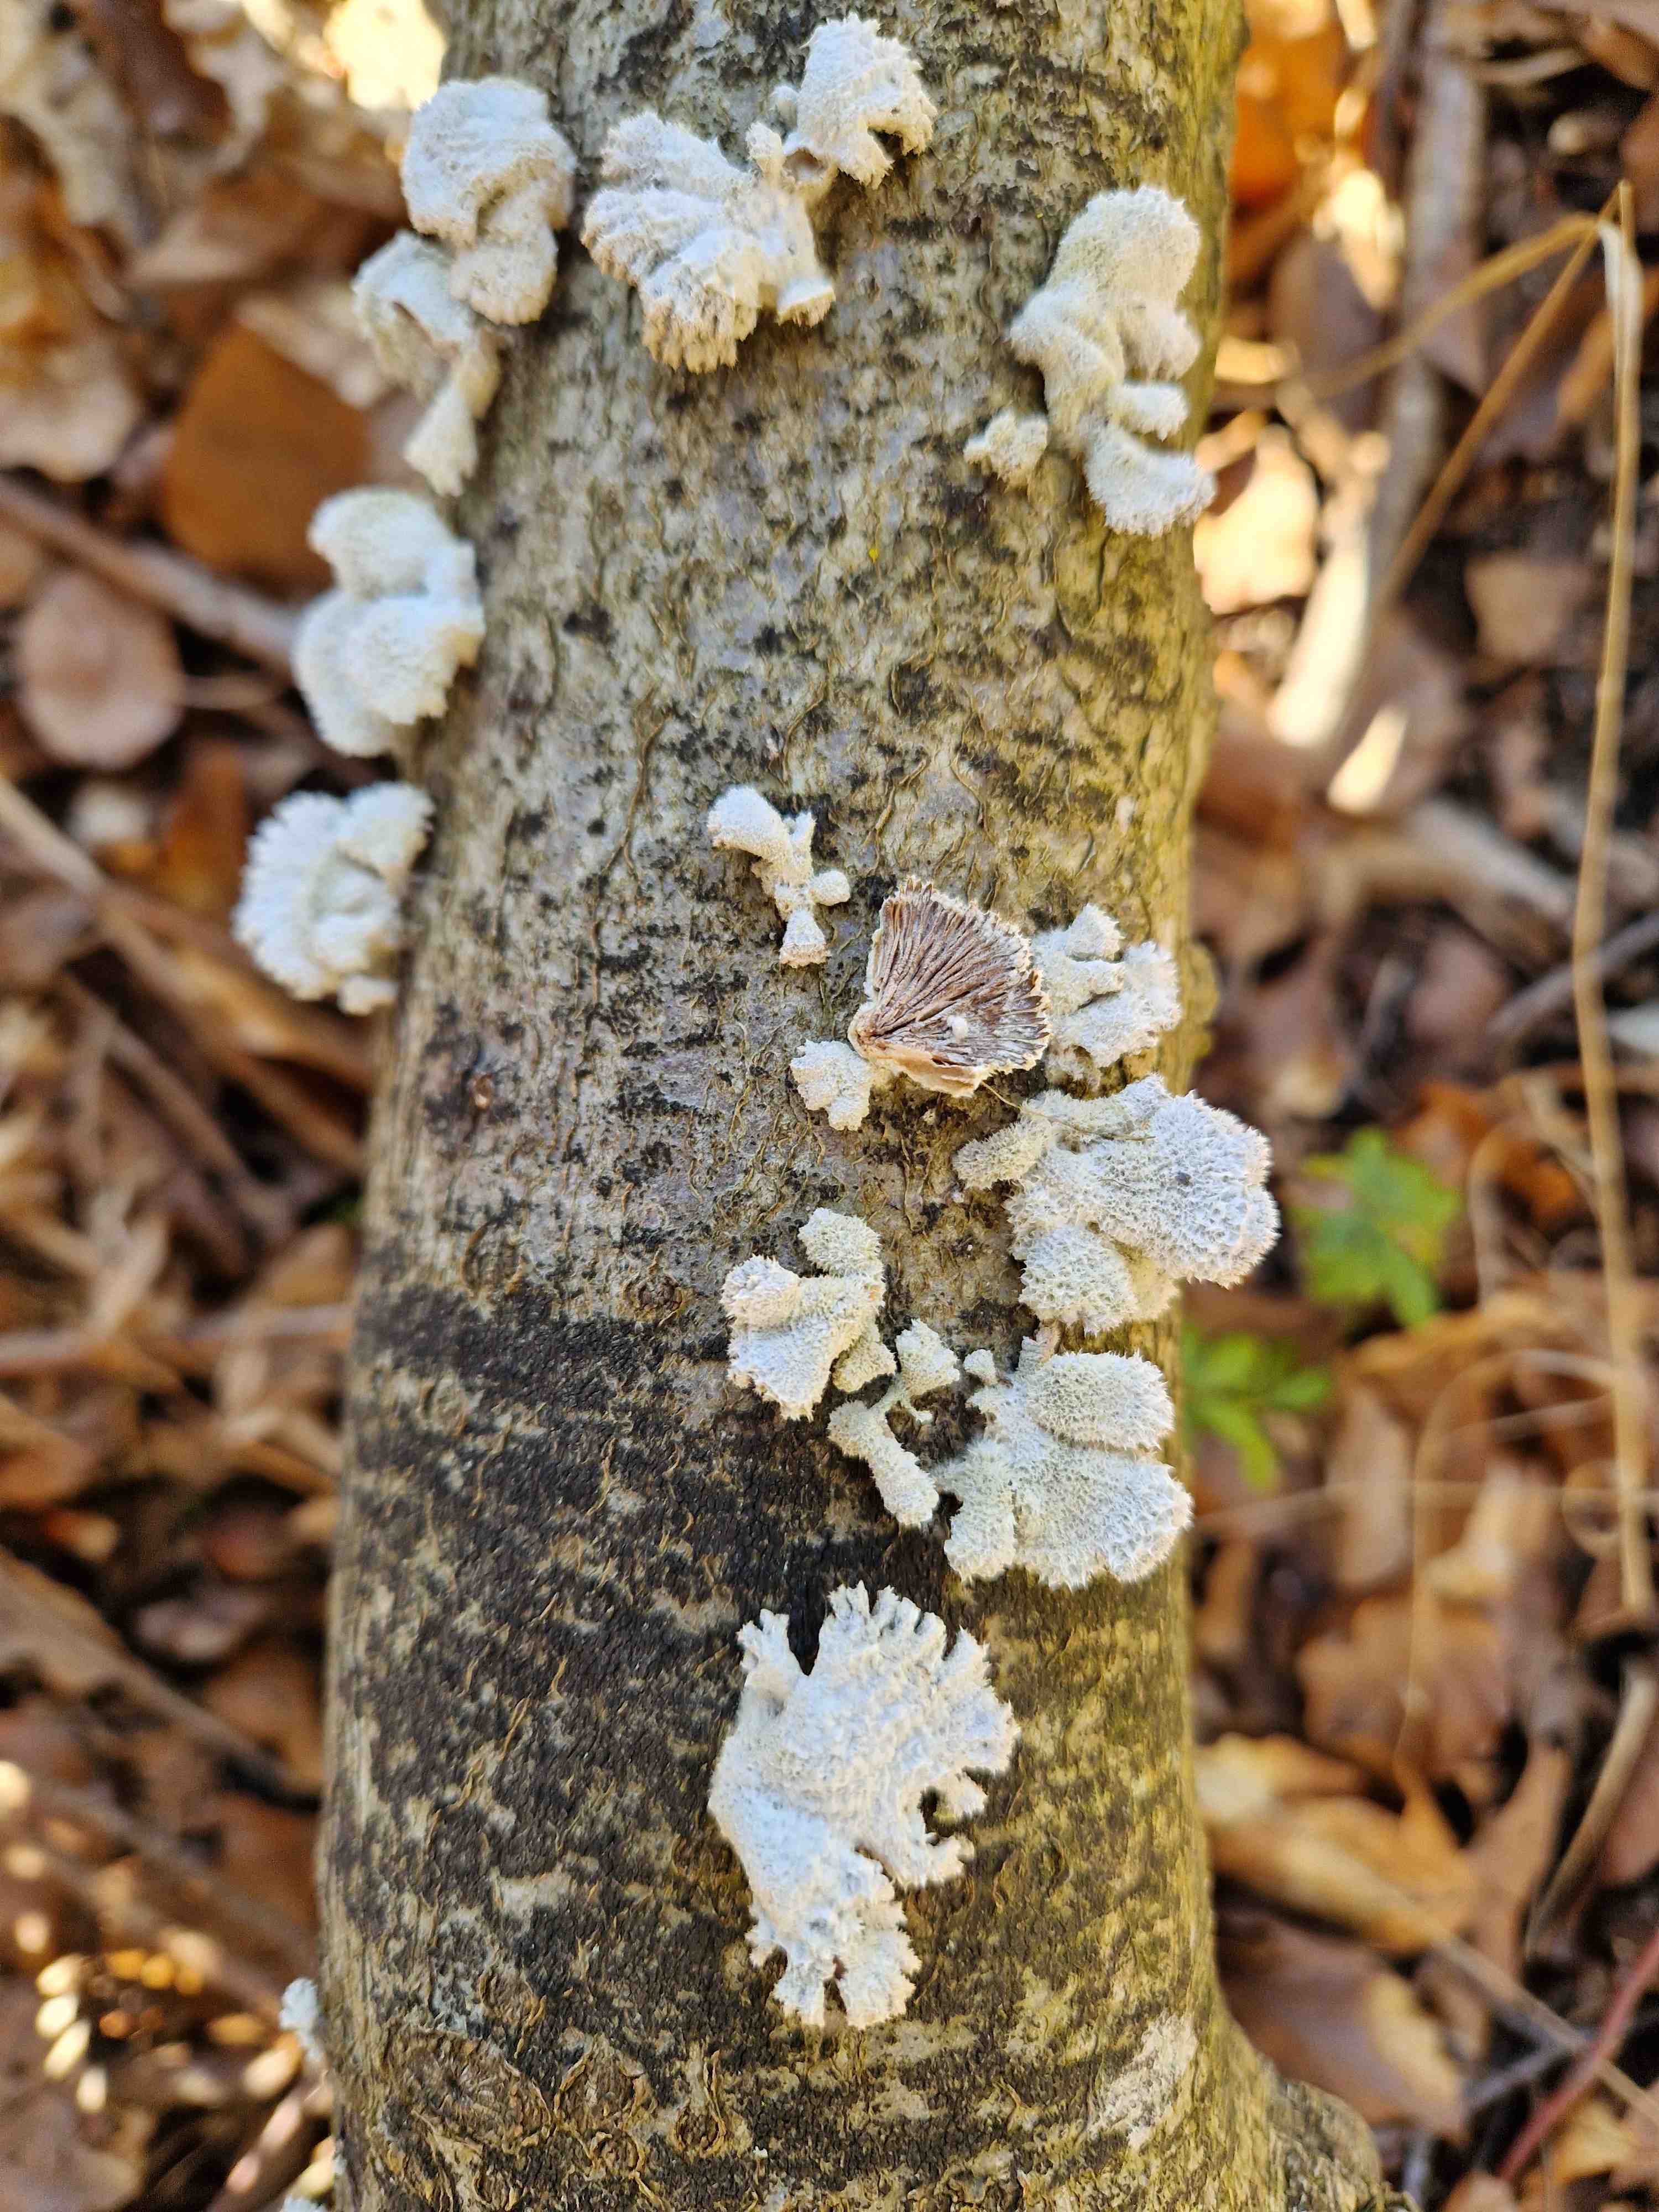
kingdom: Fungi
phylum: Basidiomycota
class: Agaricomycetes
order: Agaricales
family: Schizophyllaceae
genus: Schizophyllum
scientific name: Schizophyllum commune
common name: kløvblad
